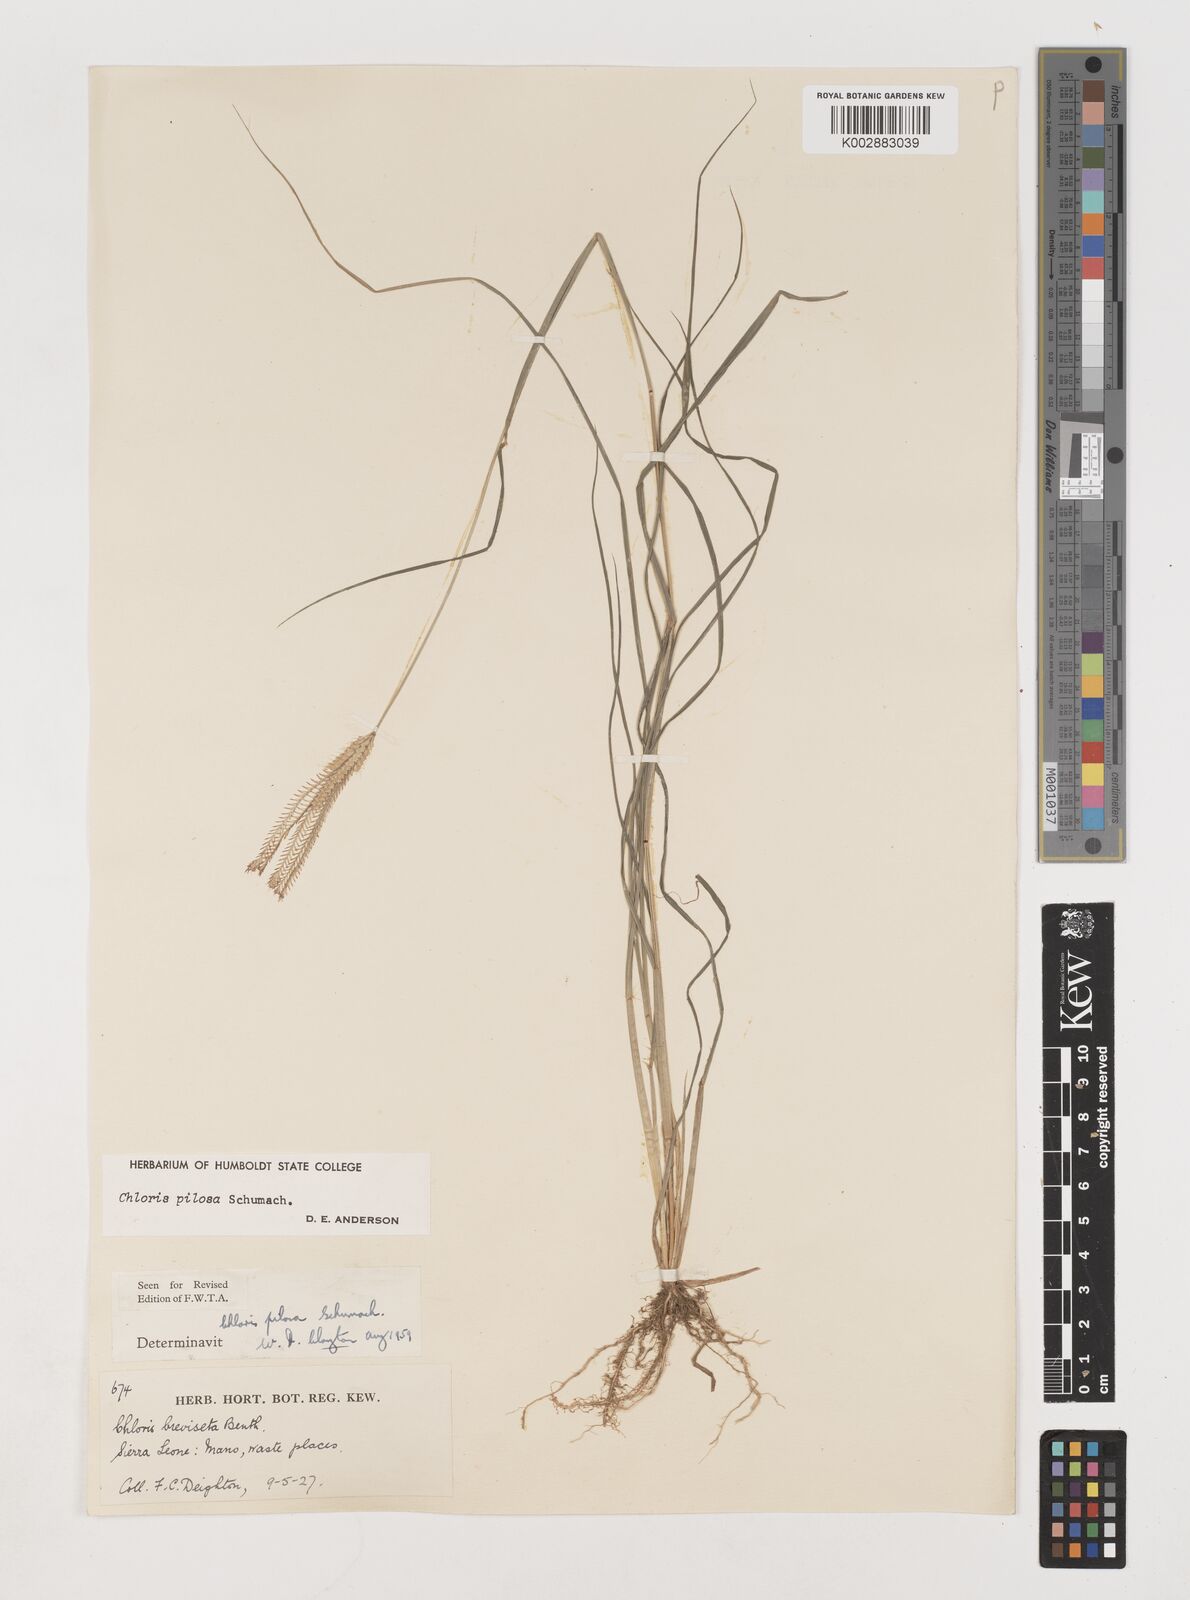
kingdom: Plantae
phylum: Tracheophyta
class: Liliopsida
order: Poales
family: Poaceae
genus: Chloris
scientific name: Chloris pilosa
